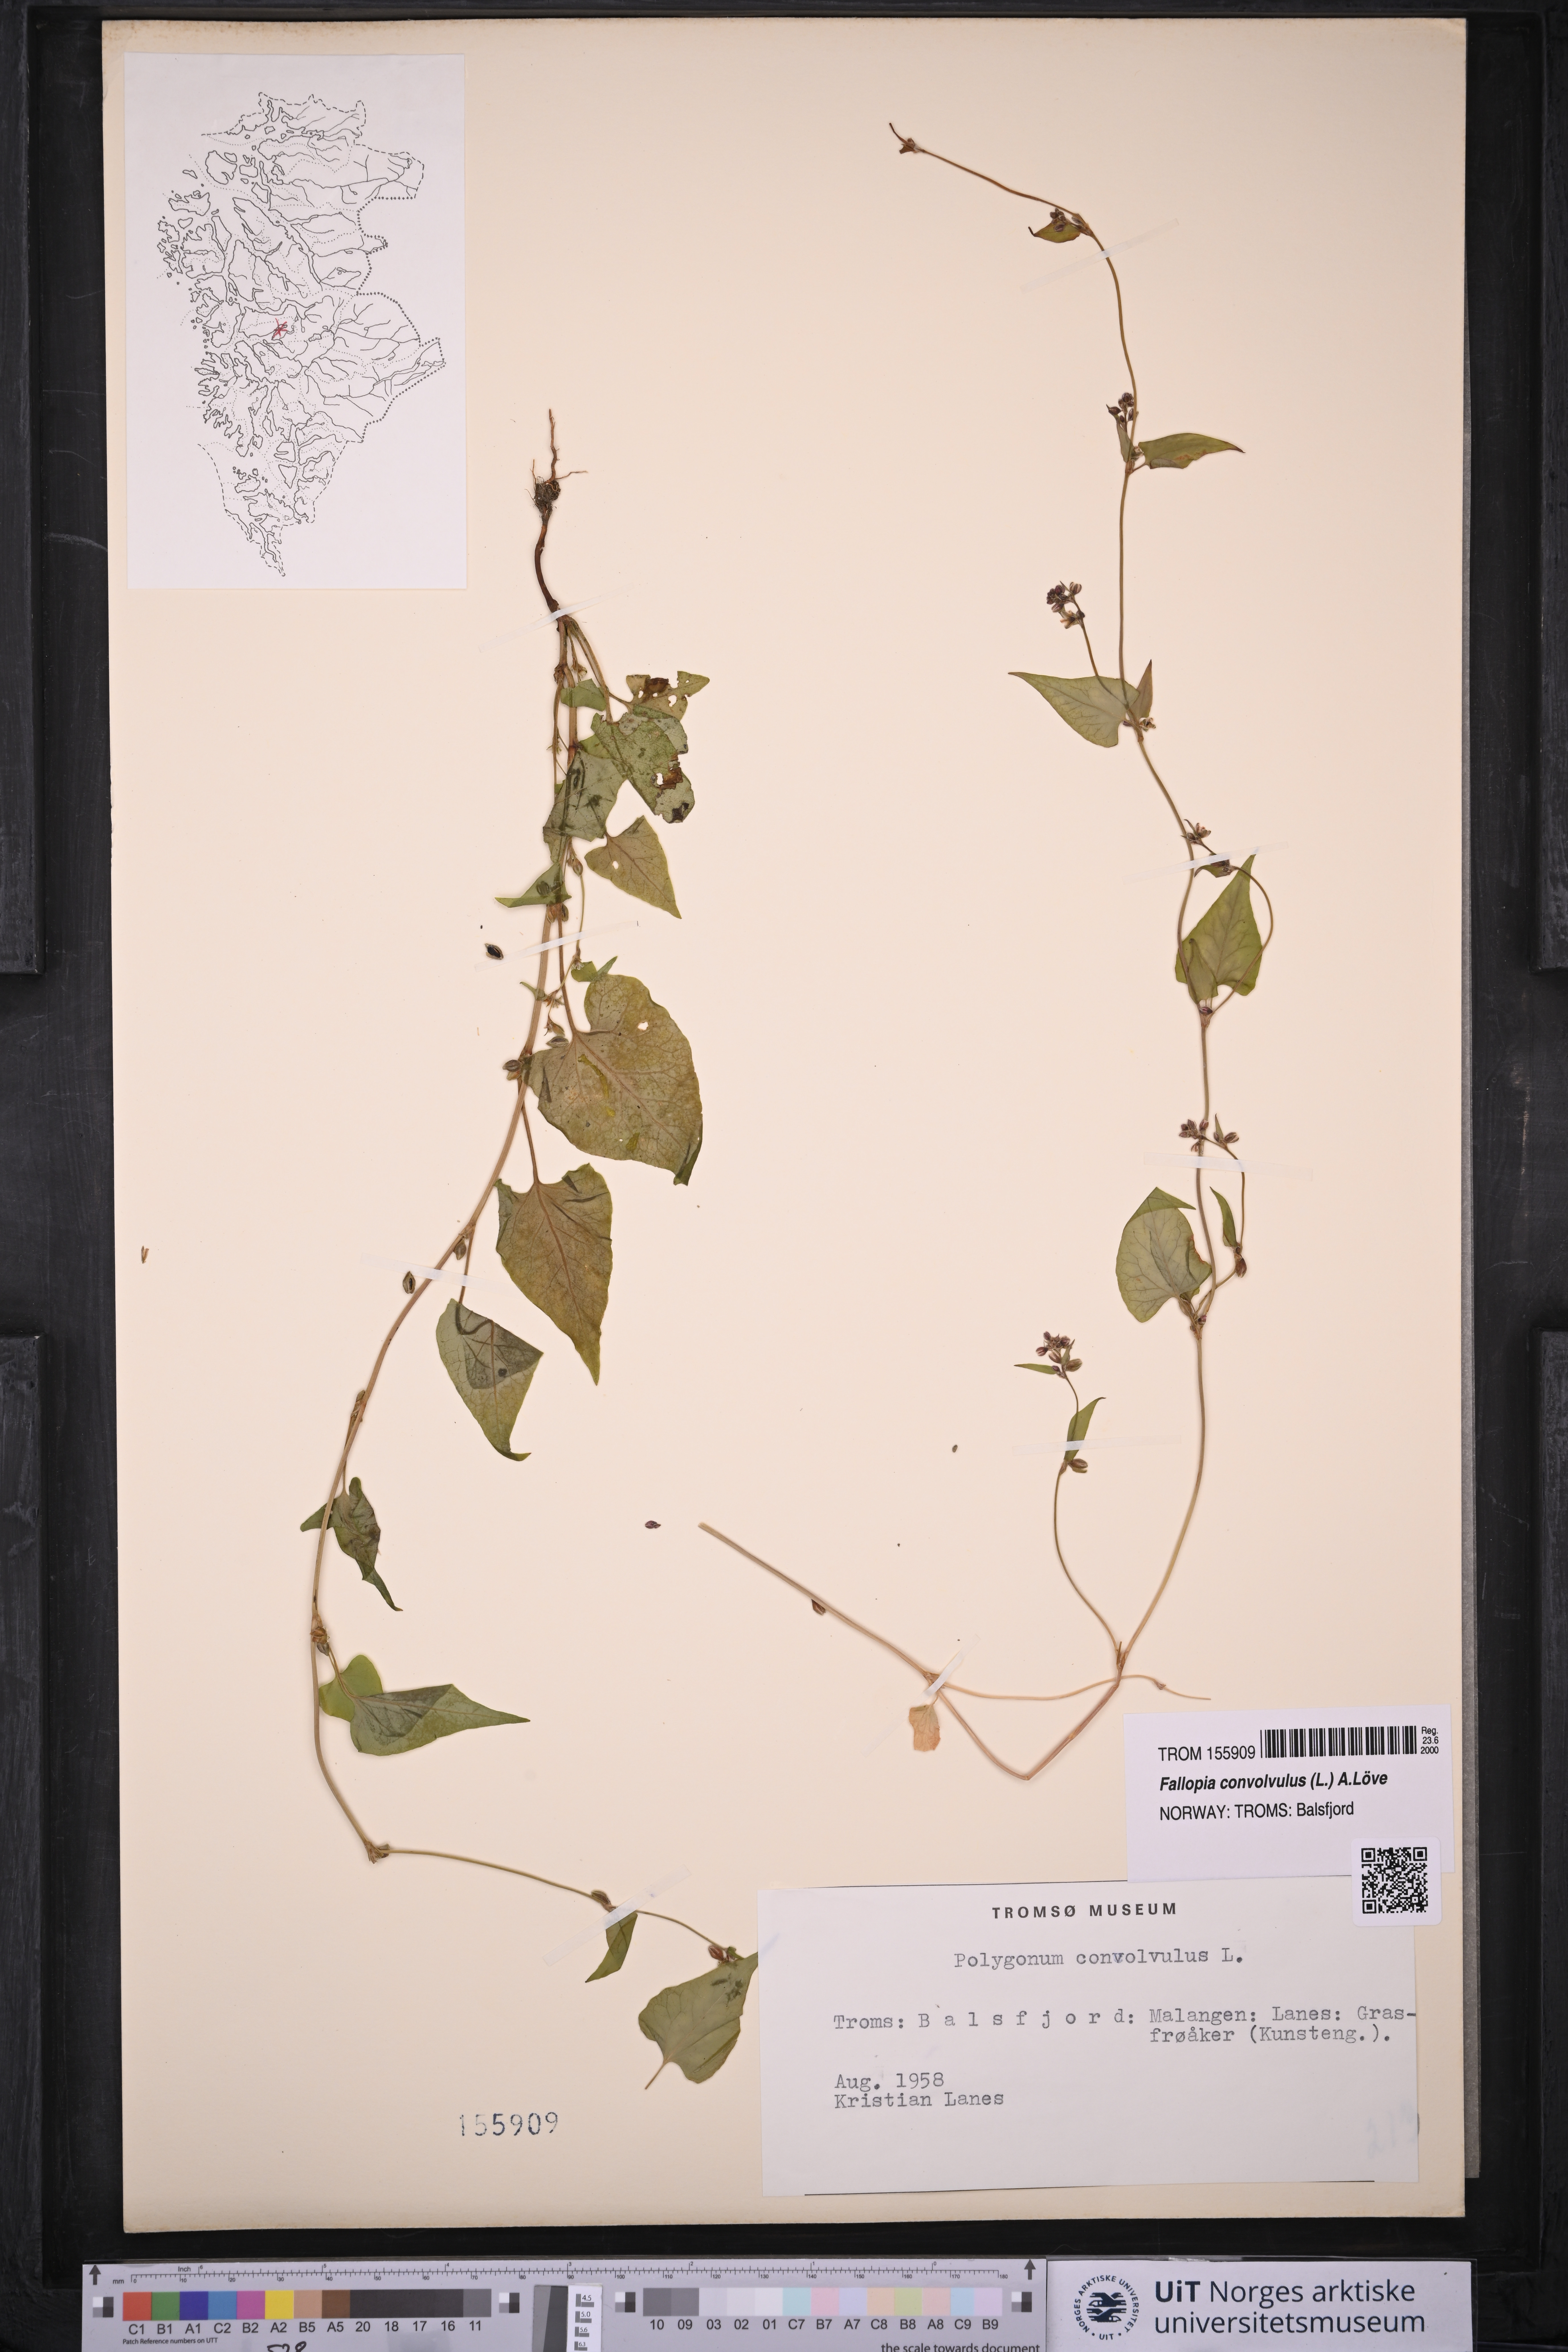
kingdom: Plantae
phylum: Tracheophyta
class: Magnoliopsida
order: Caryophyllales
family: Polygonaceae
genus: Fallopia
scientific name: Fallopia convolvulus
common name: Black bindweed
